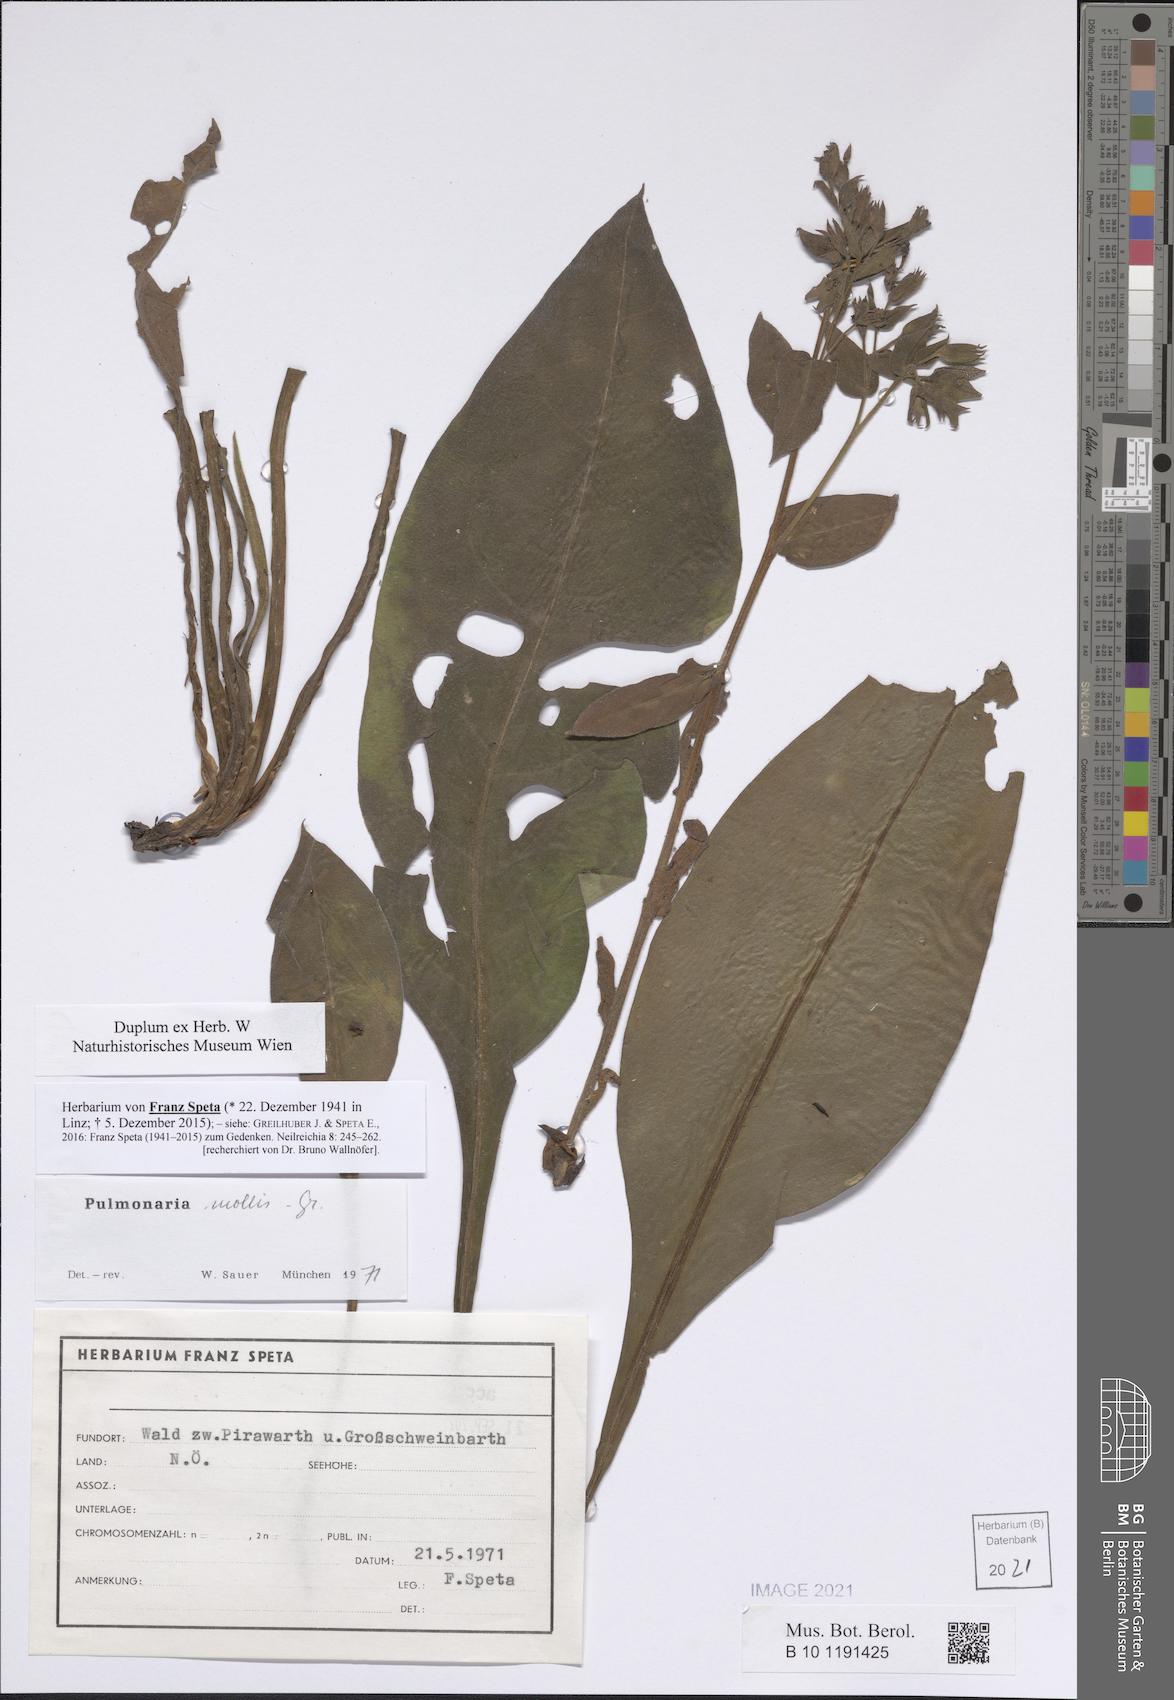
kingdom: Plantae
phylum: Tracheophyta
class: Magnoliopsida
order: Boraginales
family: Boraginaceae
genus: Pulmonaria
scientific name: Pulmonaria mollis
